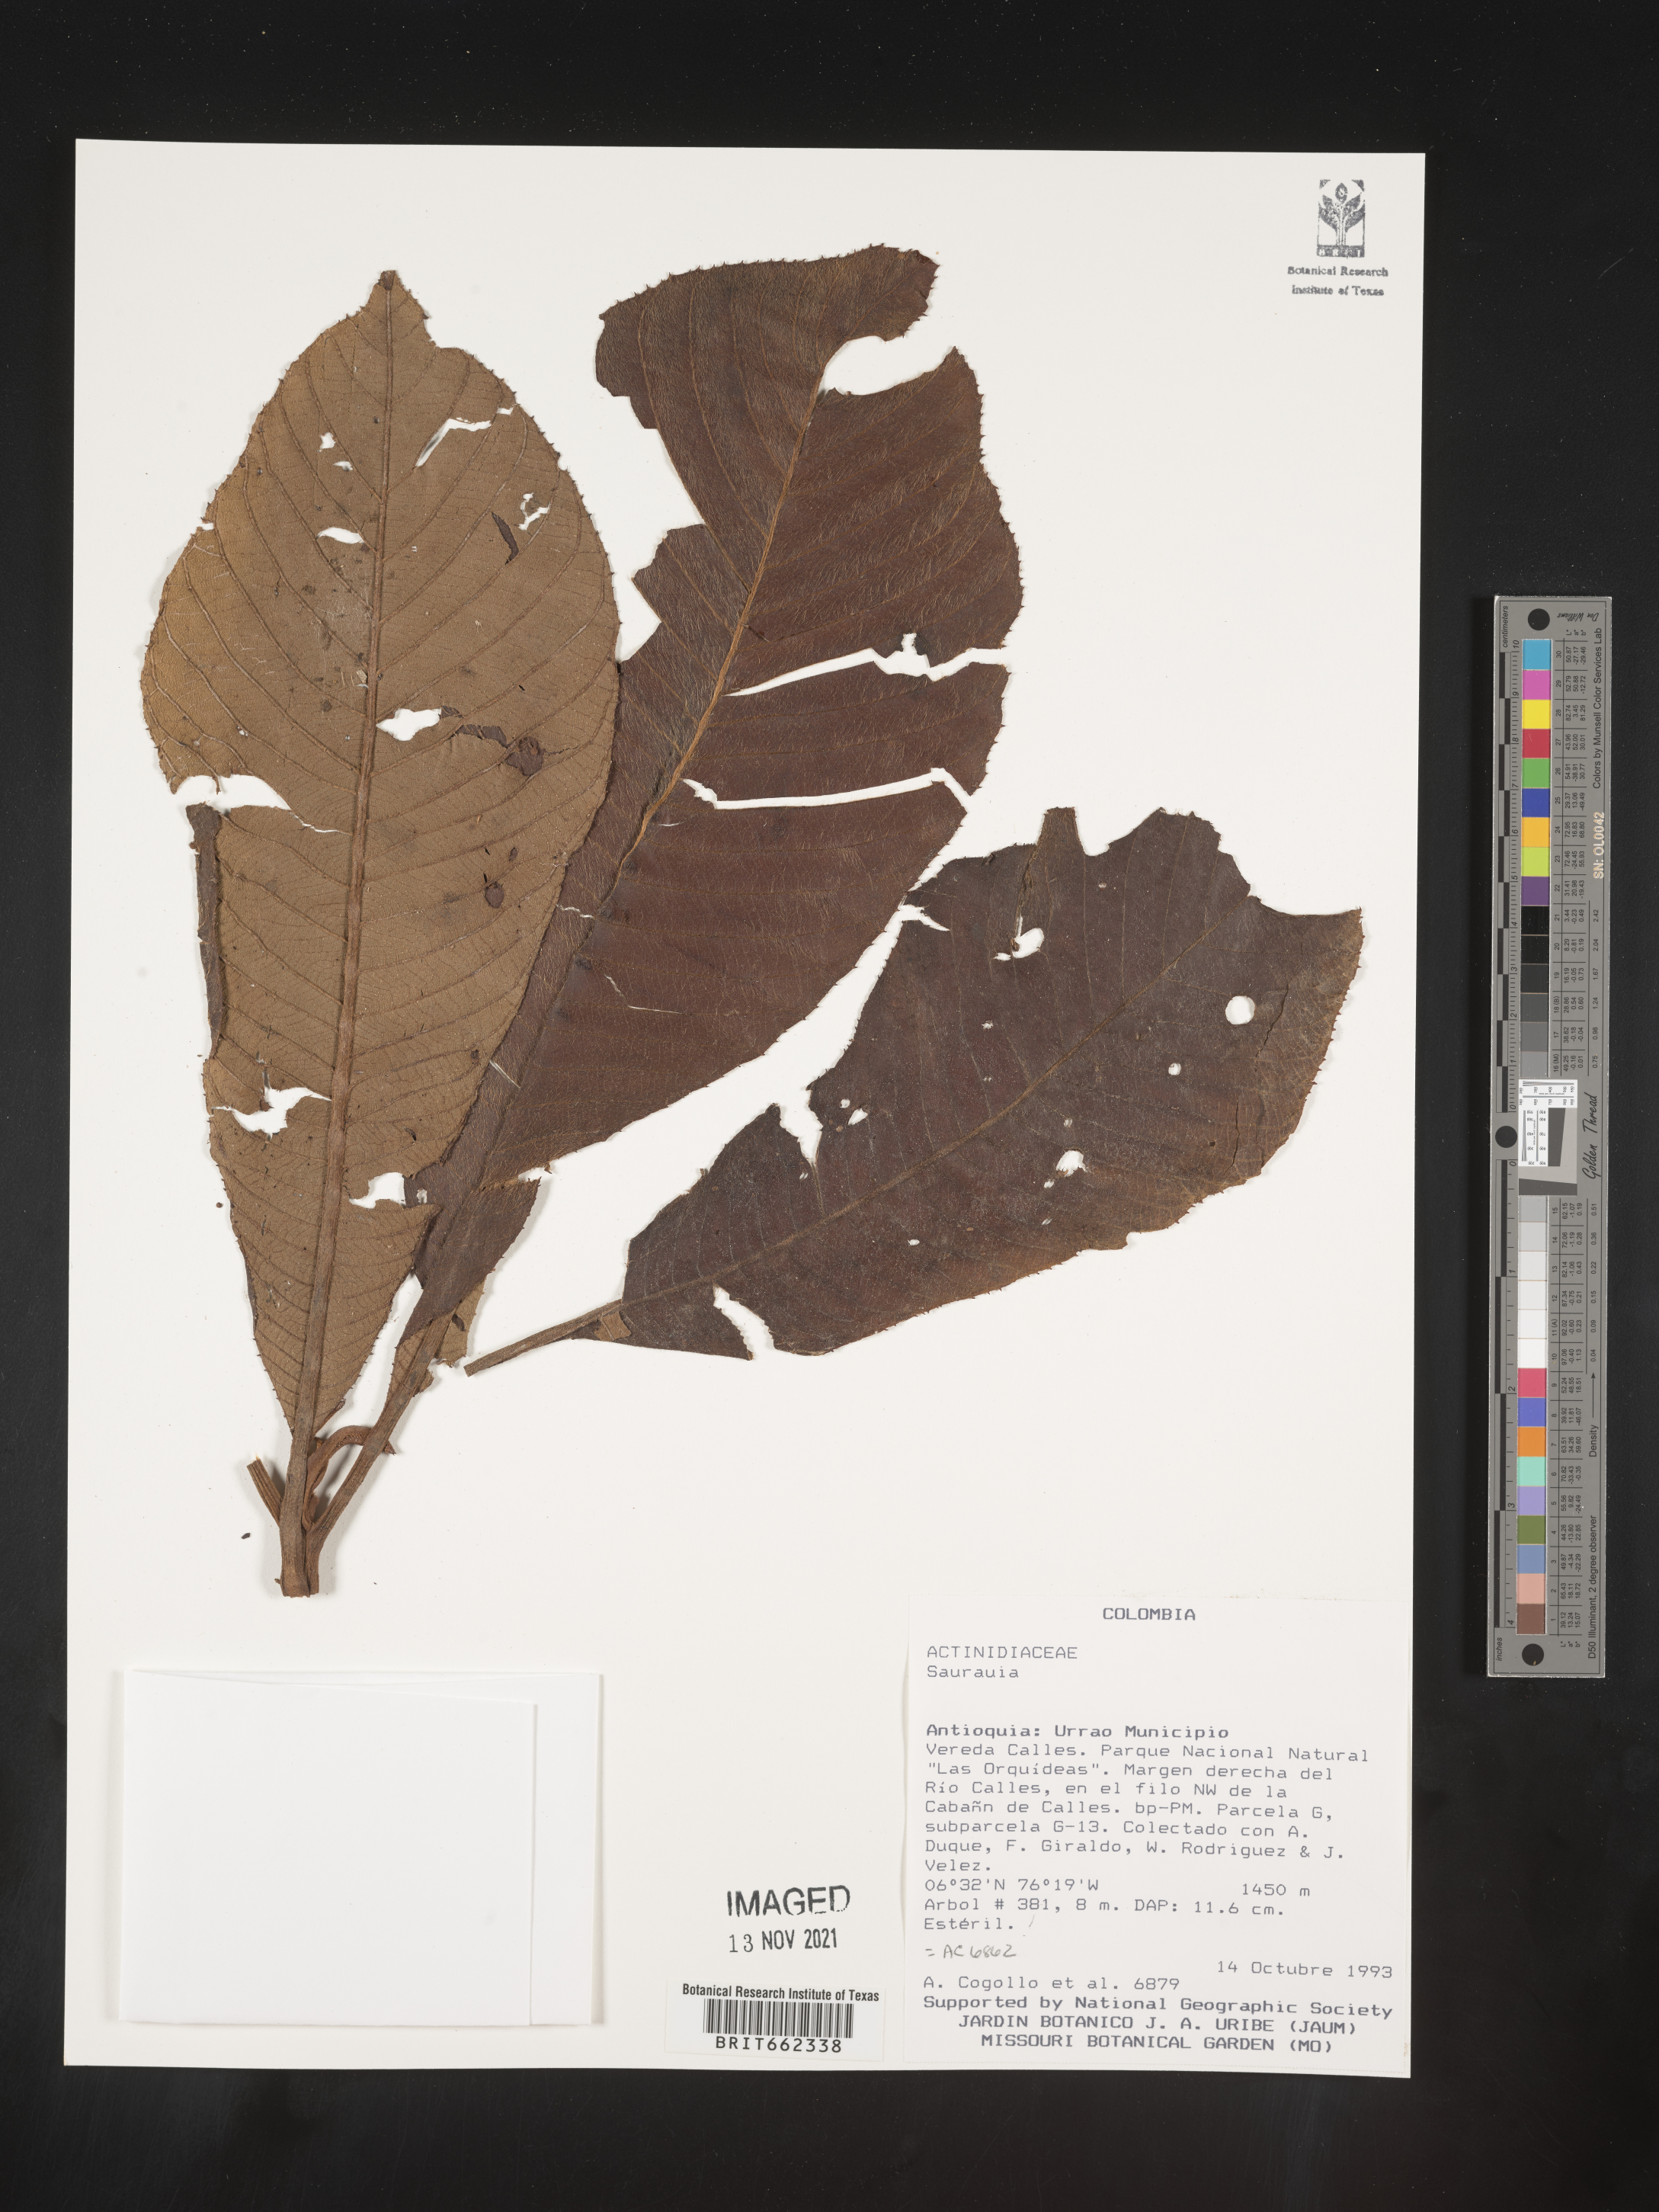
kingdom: Plantae
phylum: Tracheophyta
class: Magnoliopsida
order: Ericales
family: Actinidiaceae
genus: Saurauia
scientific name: Saurauia
